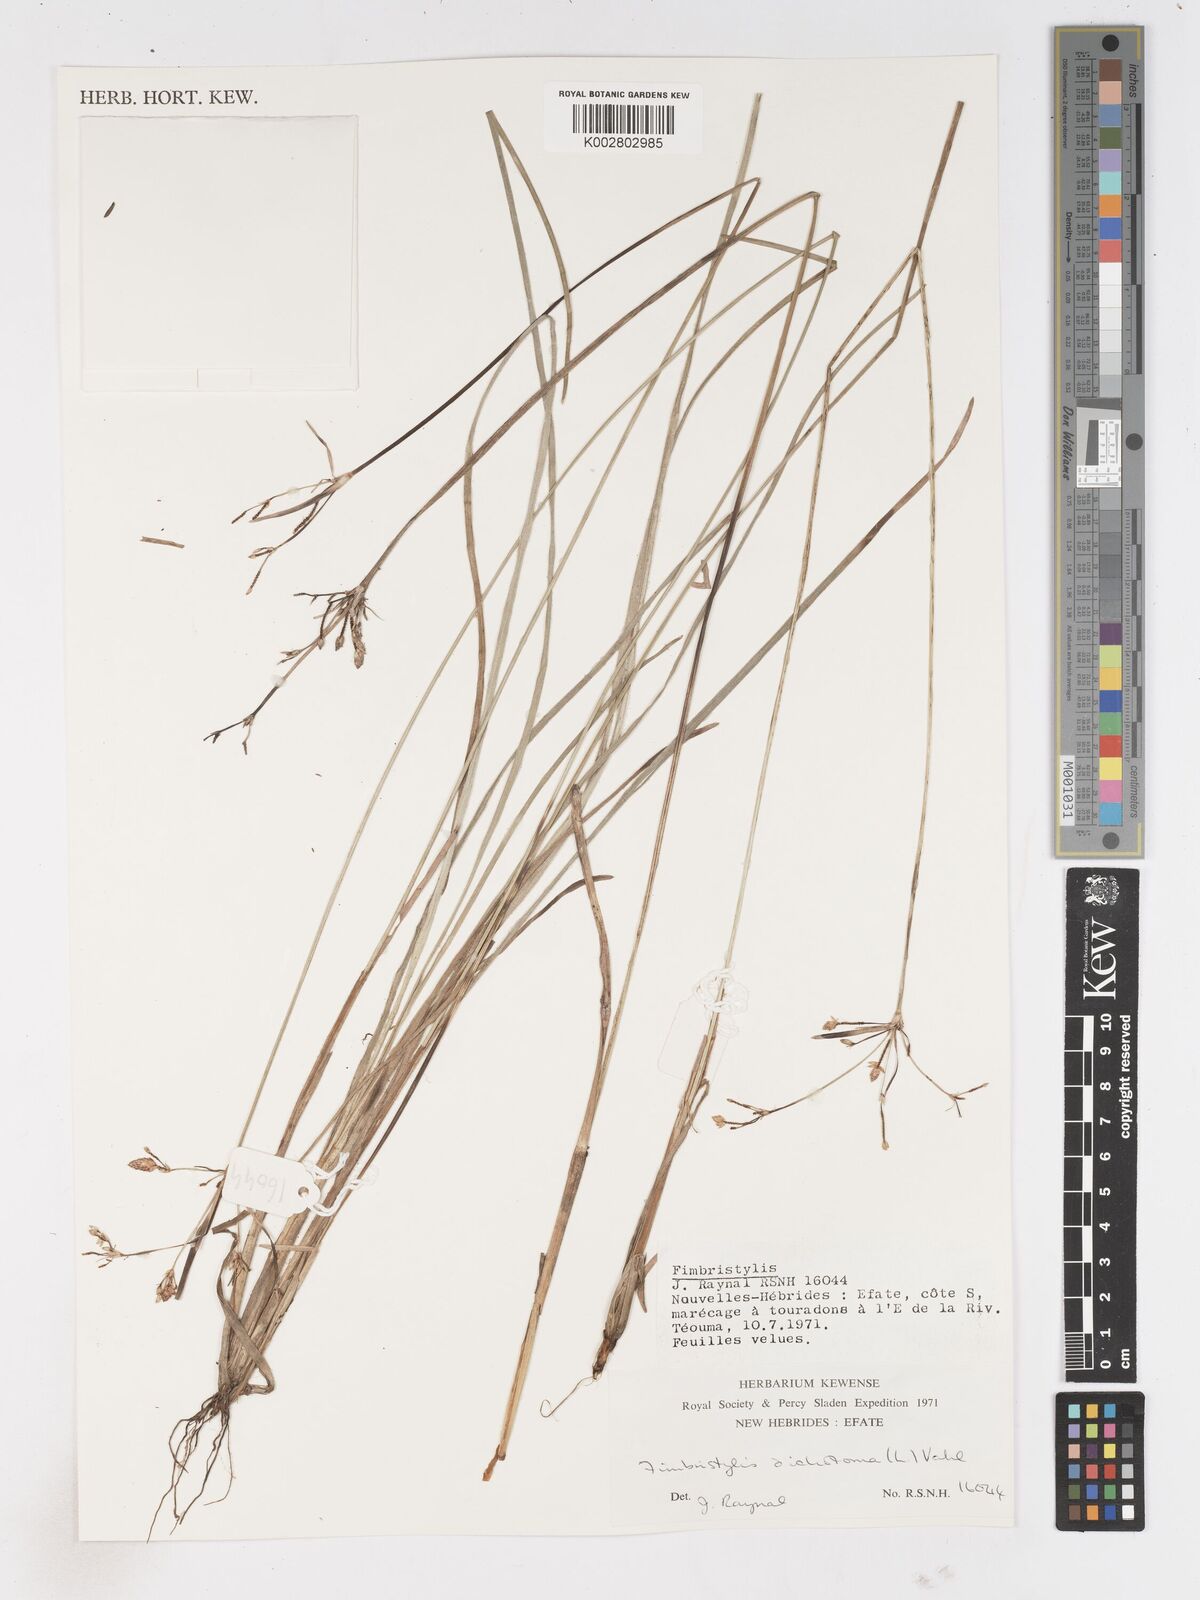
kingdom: Plantae
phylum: Tracheophyta
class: Liliopsida
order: Poales
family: Cyperaceae
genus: Fimbristylis
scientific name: Fimbristylis dichotoma
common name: Forked fimbry
